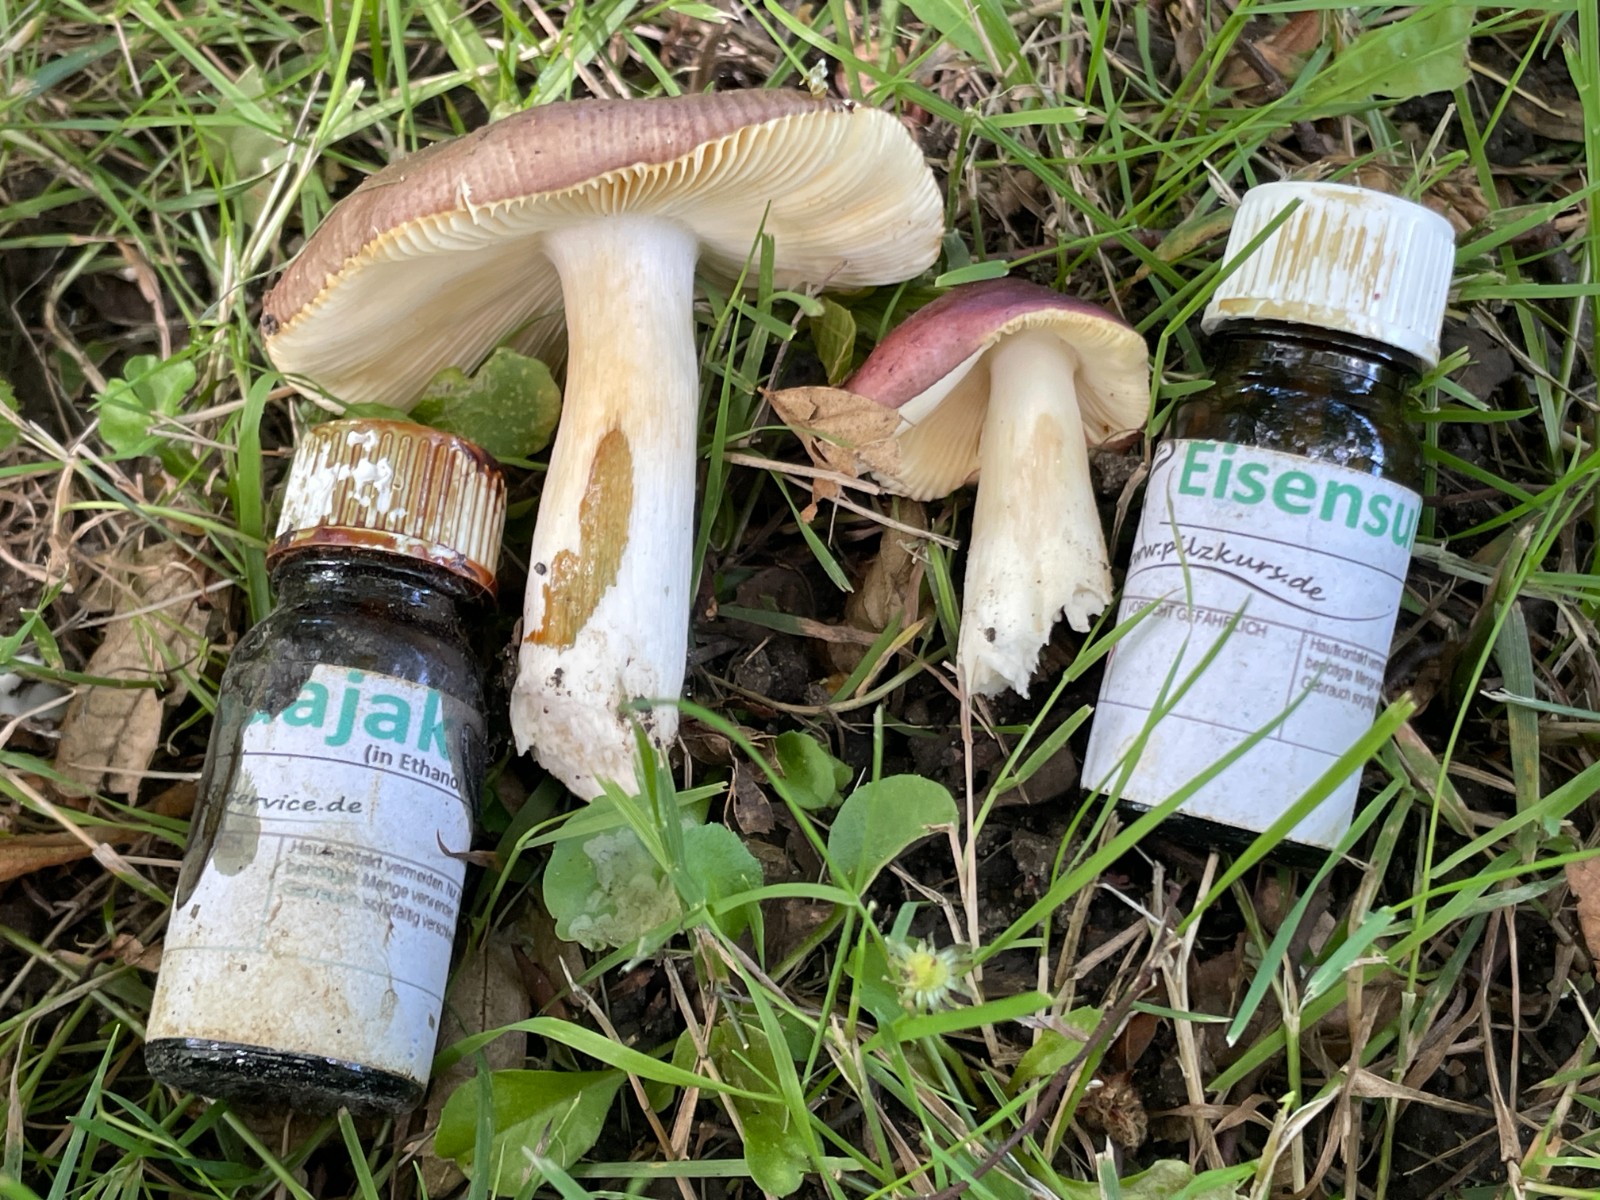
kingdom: Fungi
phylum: Basidiomycota
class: Agaricomycetes
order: Russulales
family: Russulaceae
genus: Russula
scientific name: Russula carpini
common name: avnbøg-skørhat
